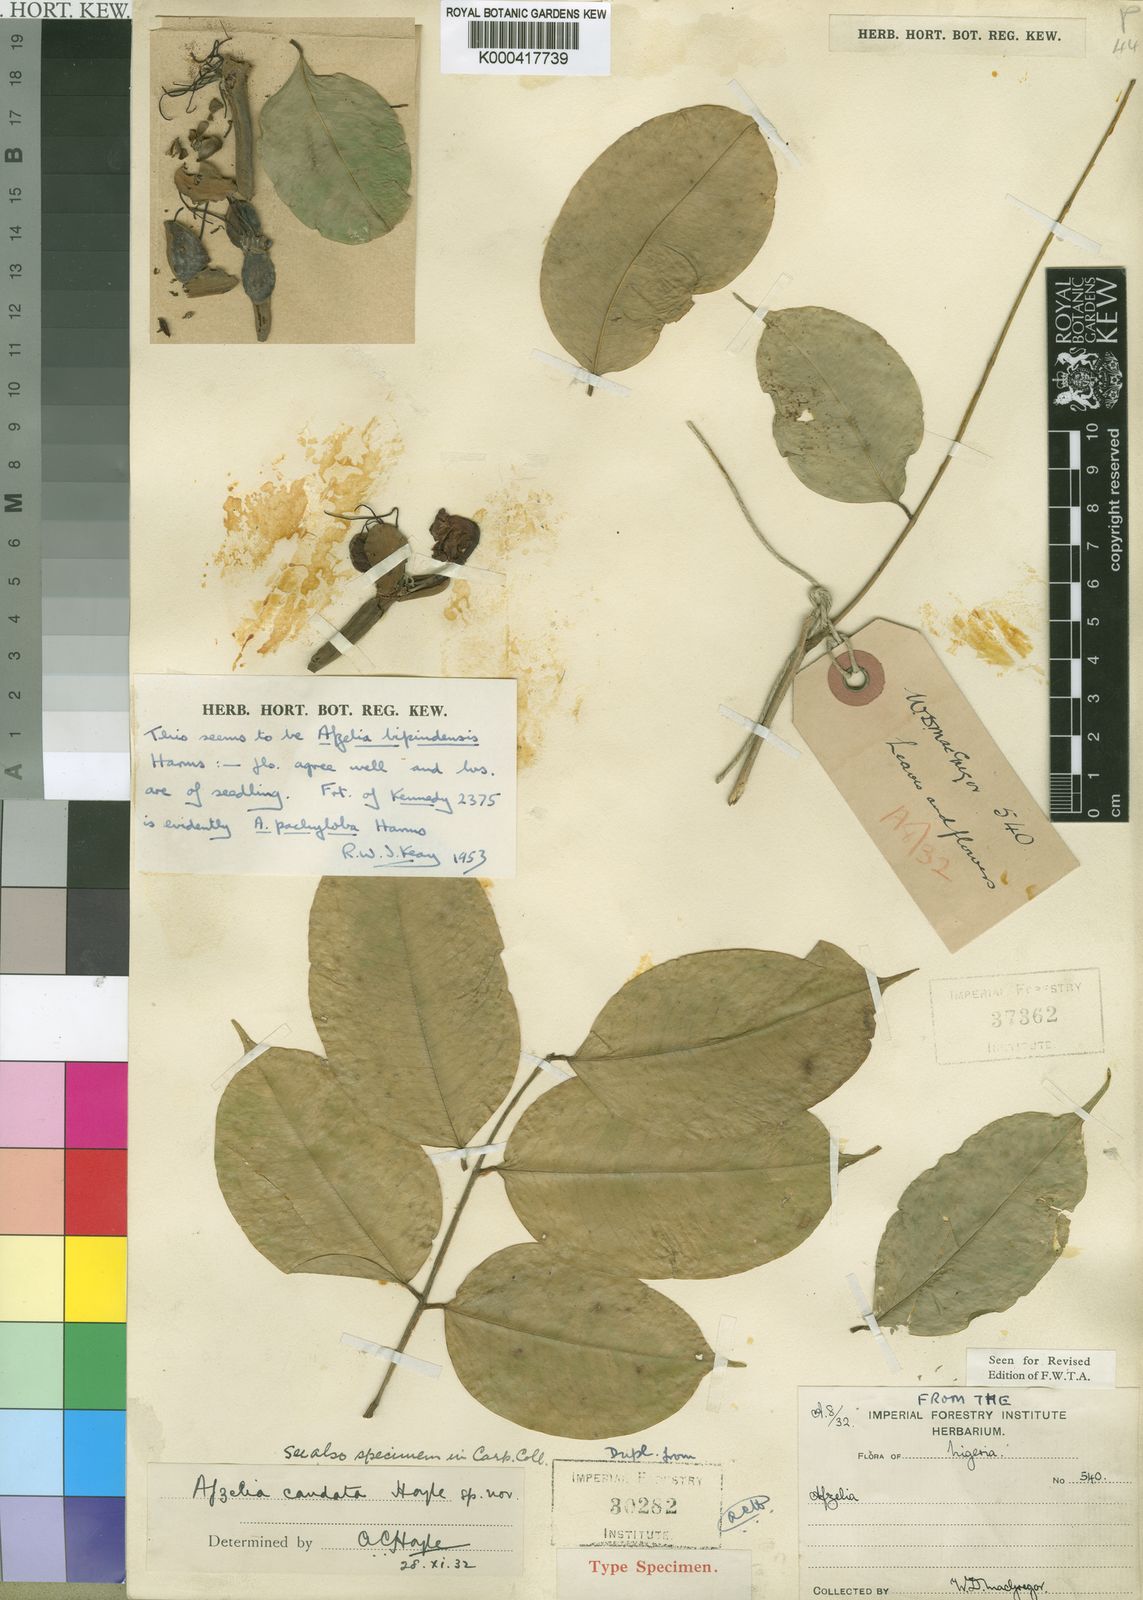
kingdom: Plantae
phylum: Tracheophyta
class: Magnoliopsida
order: Fabales
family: Fabaceae
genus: Afzelia
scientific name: Afzelia bipindensis
